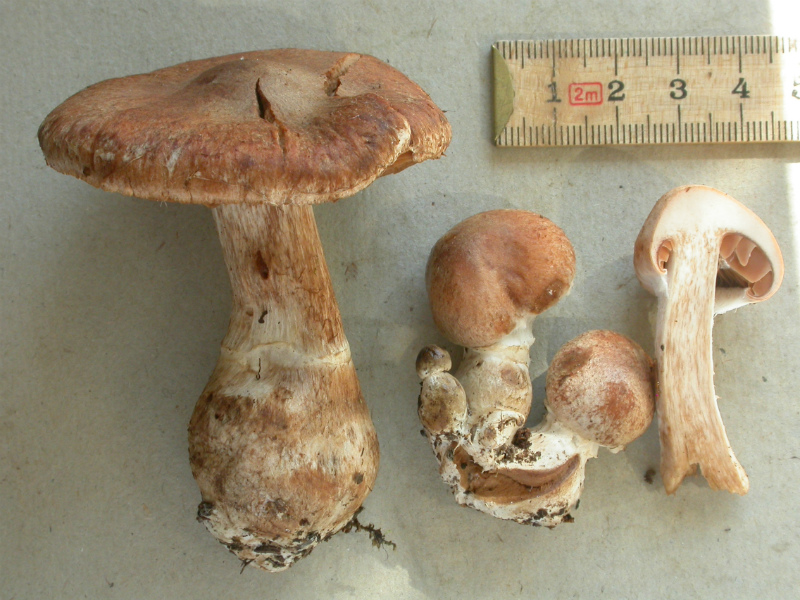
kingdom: Fungi
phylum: Basidiomycota
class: Agaricomycetes
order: Agaricales
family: Cortinariaceae
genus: Cortinarius
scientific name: Cortinarius laniger
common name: teglbladet slørhat
